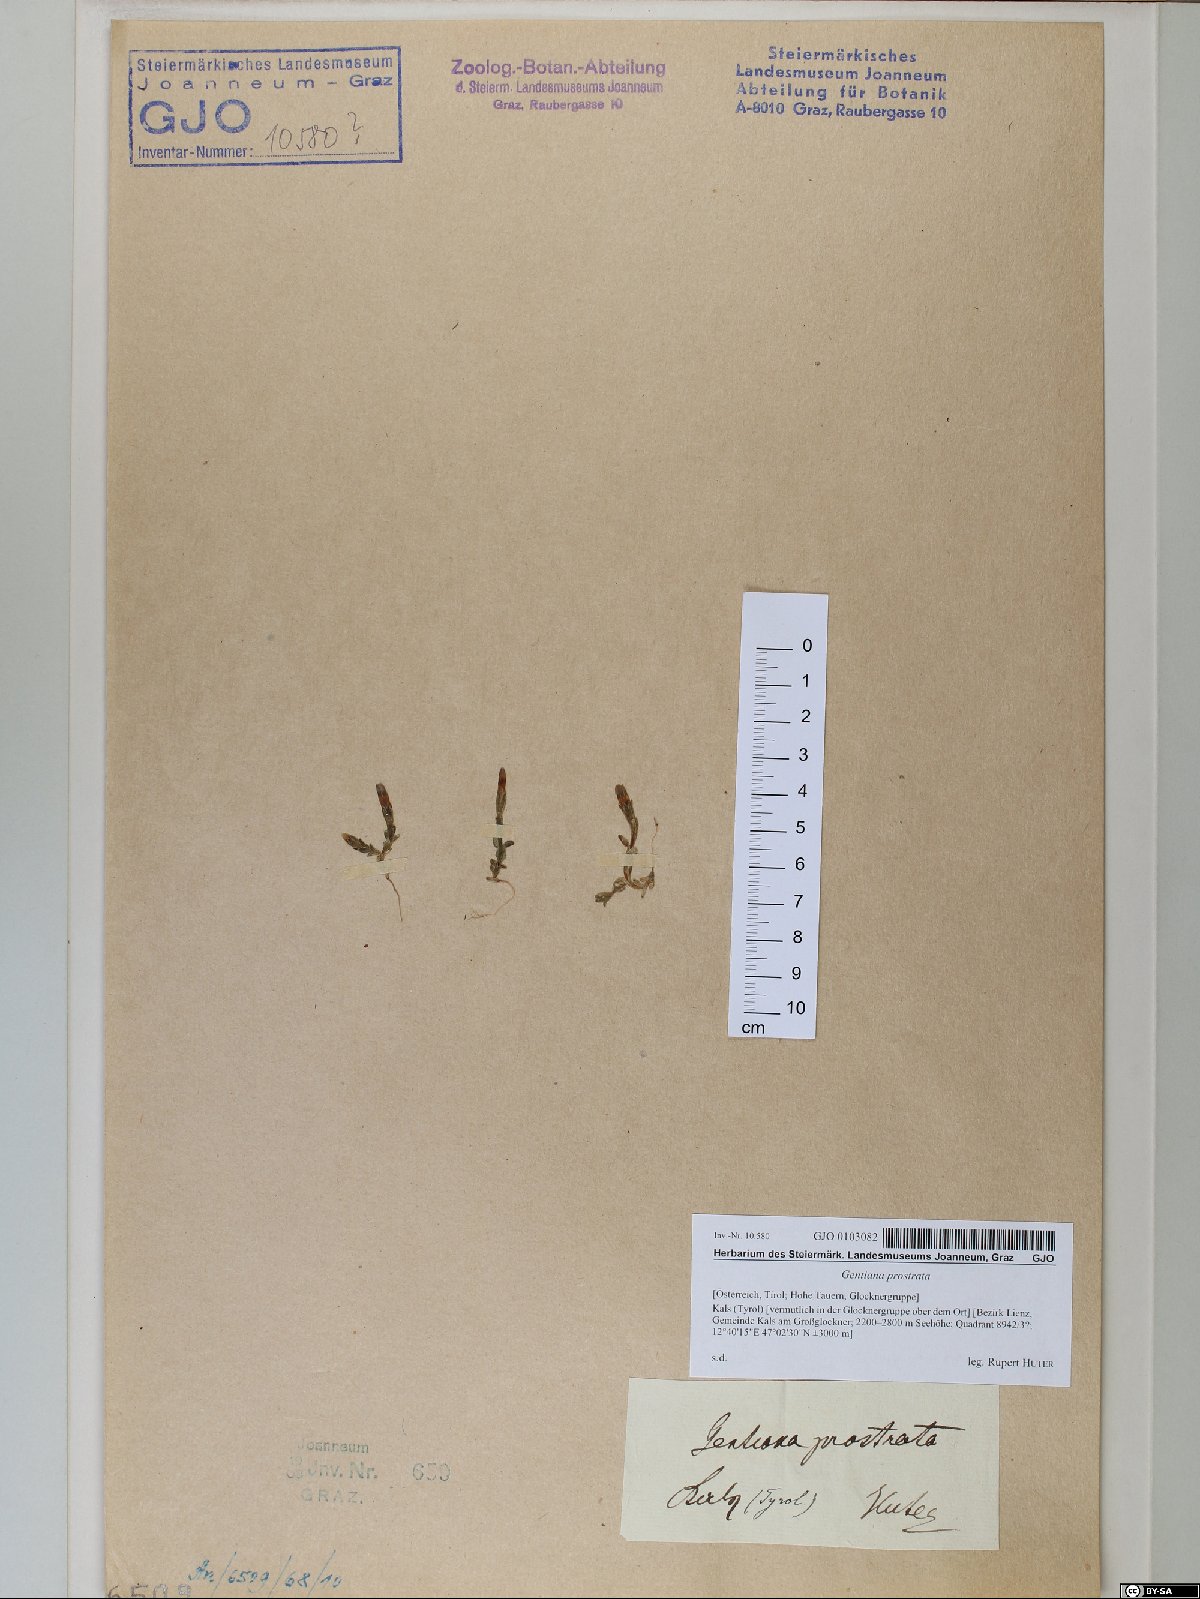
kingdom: Plantae
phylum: Tracheophyta
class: Magnoliopsida
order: Gentianales
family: Gentianaceae
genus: Gentiana
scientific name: Gentiana prostrata
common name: Moss gentian
